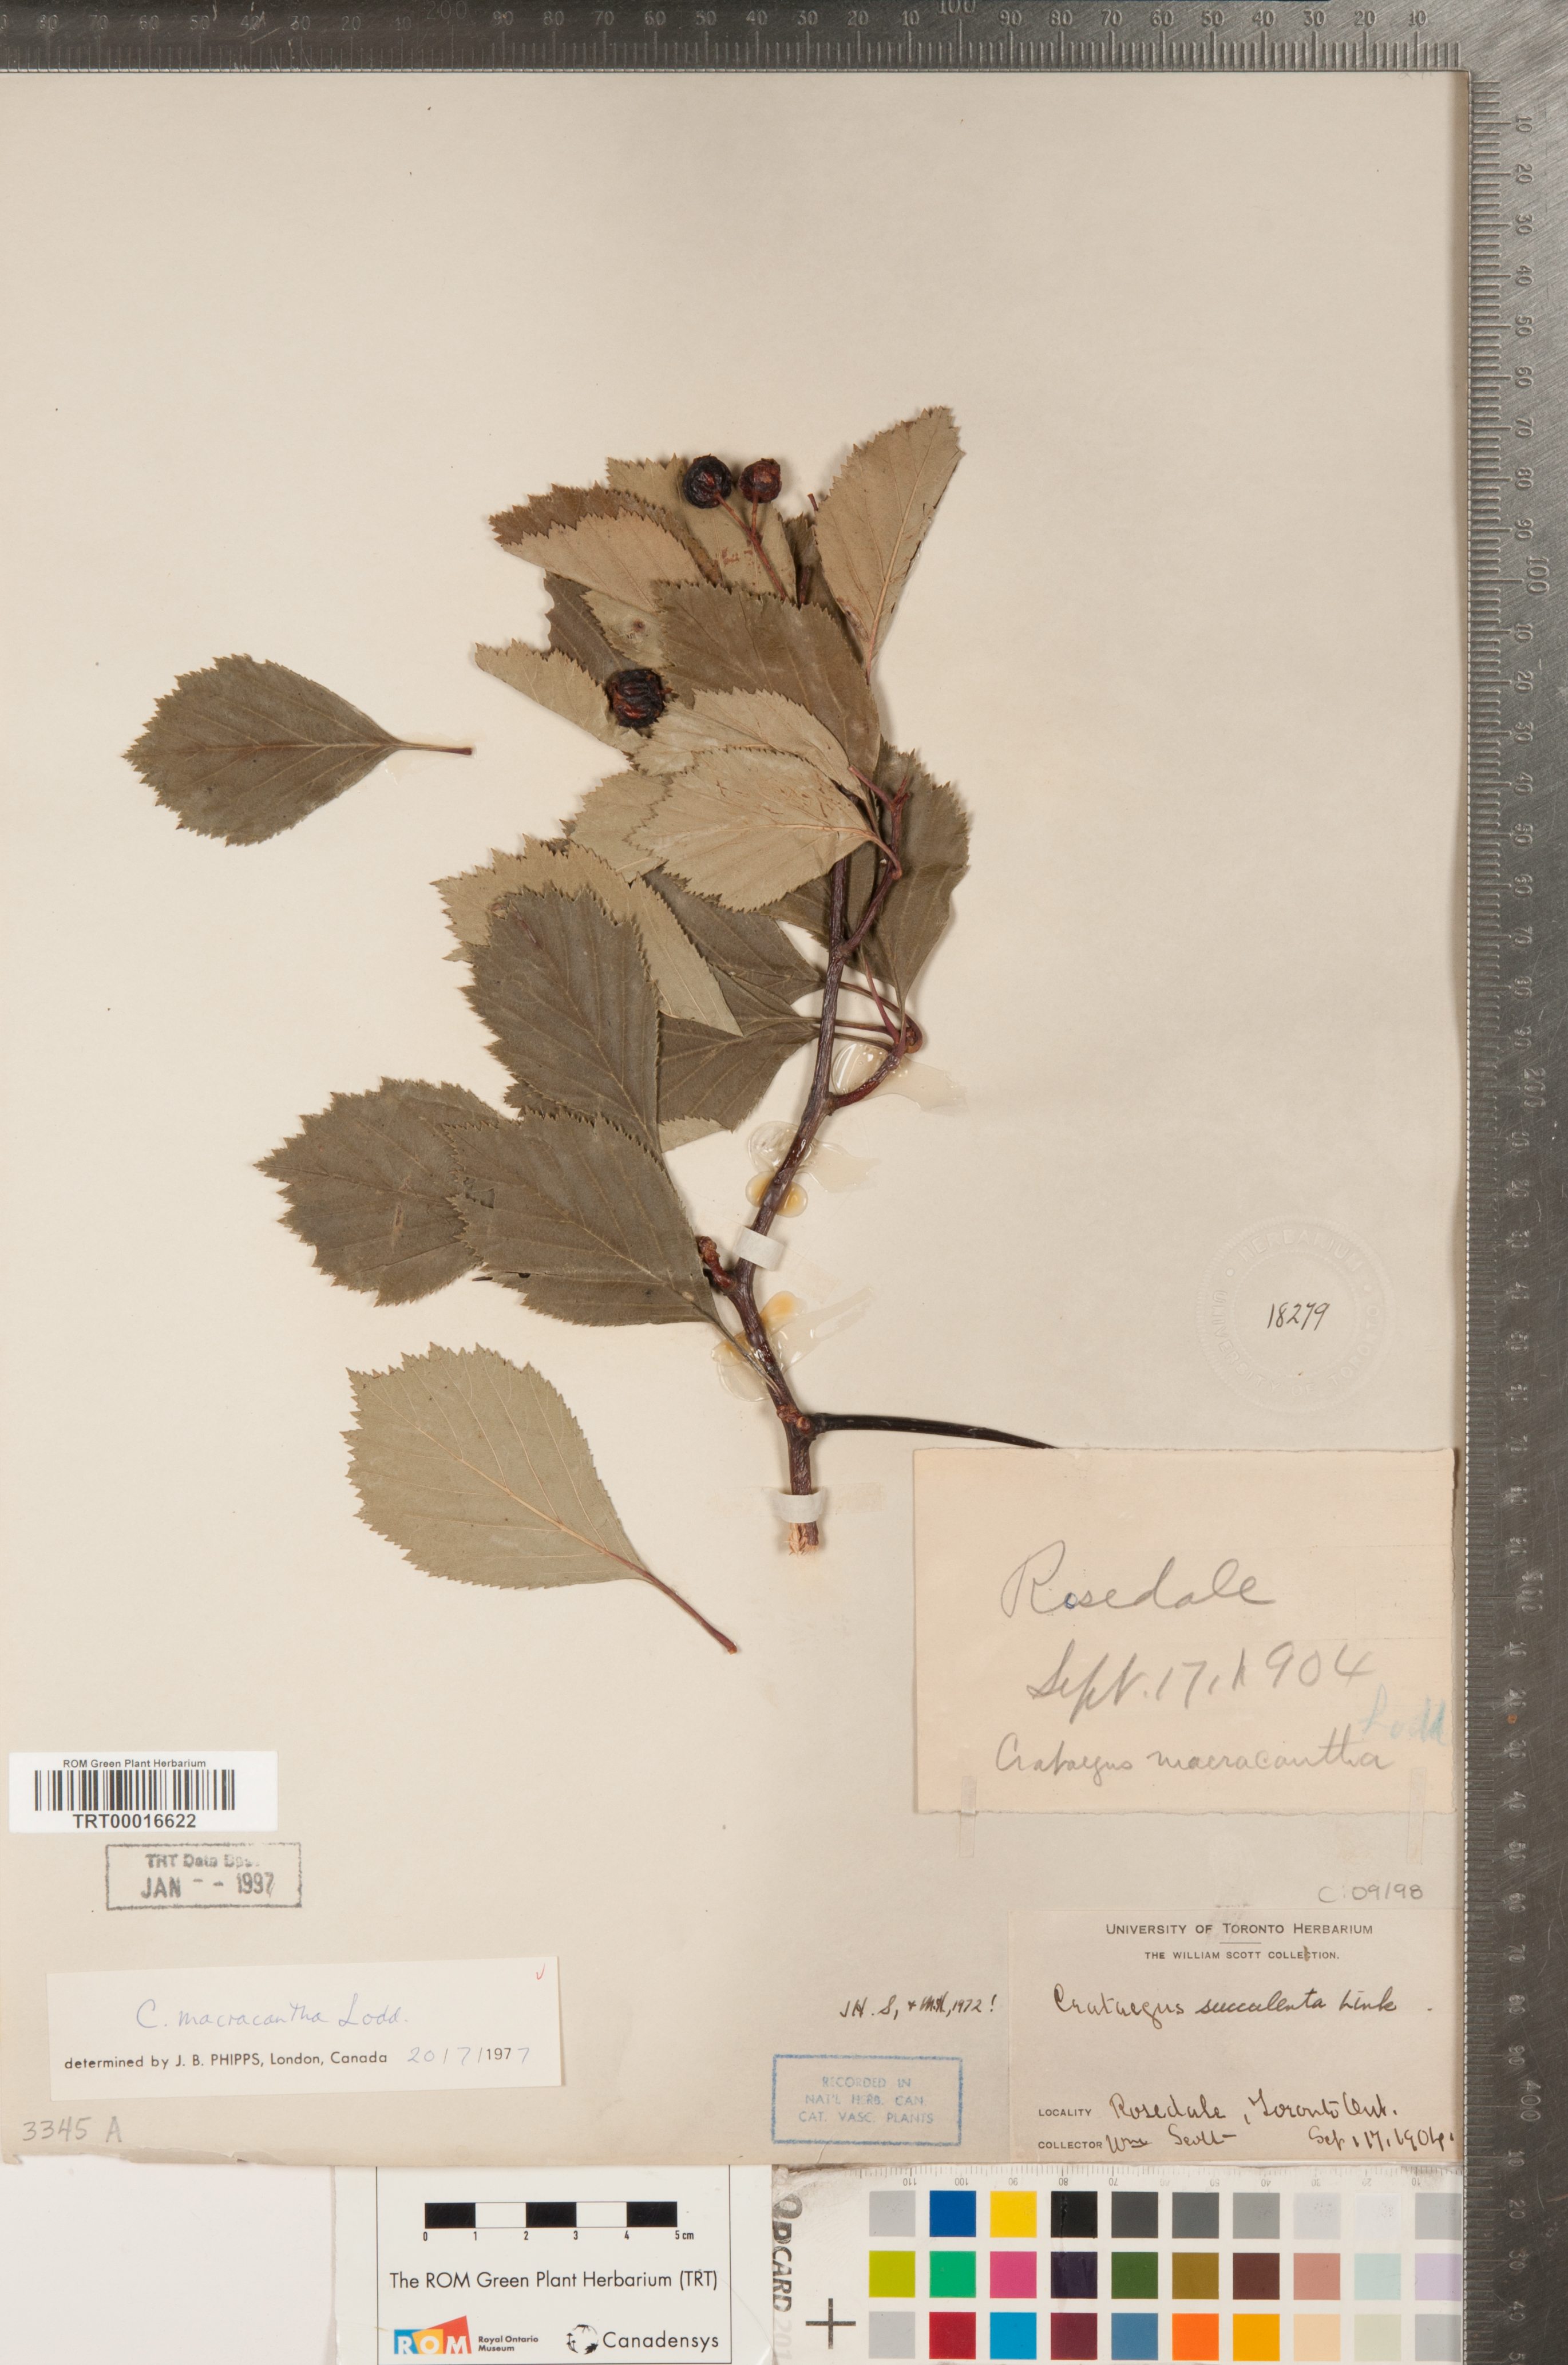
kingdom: Plantae
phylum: Tracheophyta
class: Magnoliopsida
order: Rosales
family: Rosaceae
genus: Crataegus
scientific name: Crataegus macracantha
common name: Large-thorn hawthorn
